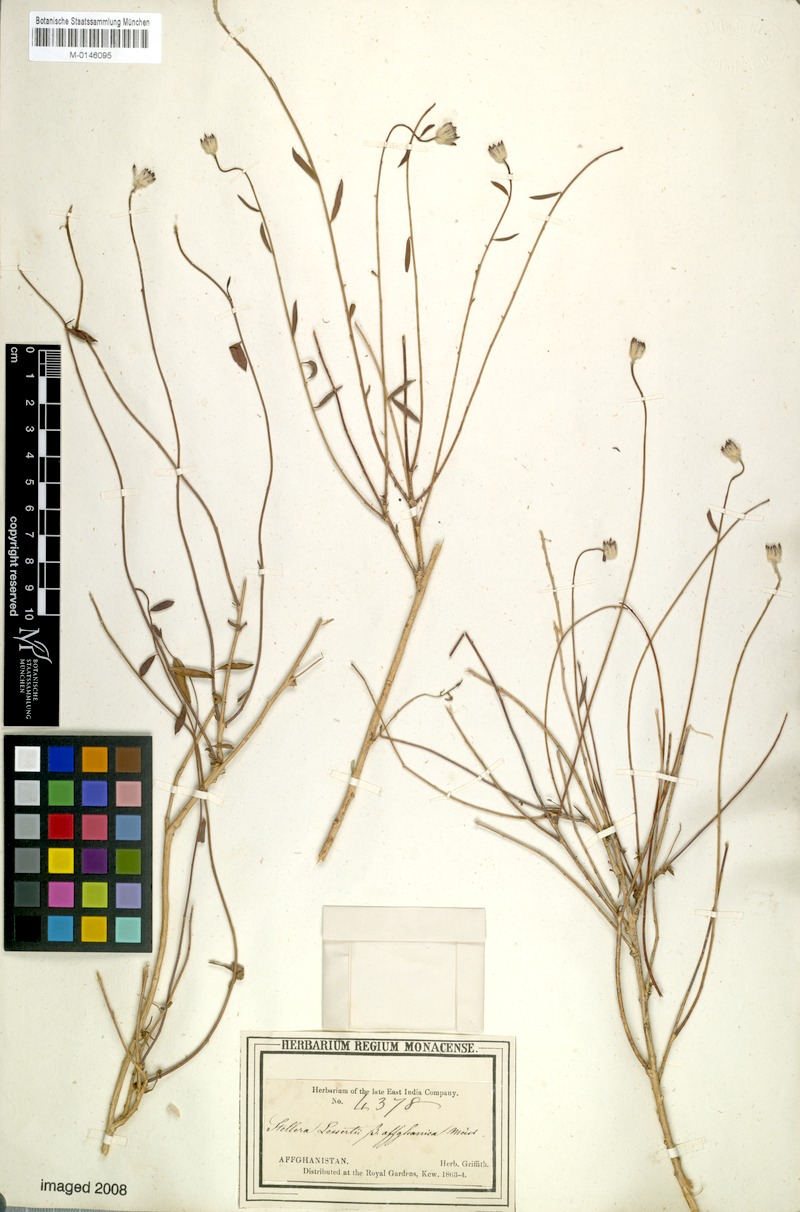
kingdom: Plantae
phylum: Tracheophyta
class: Magnoliopsida
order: Malvales
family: Thymelaeaceae
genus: Diarthron
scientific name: Diarthron lessertii
